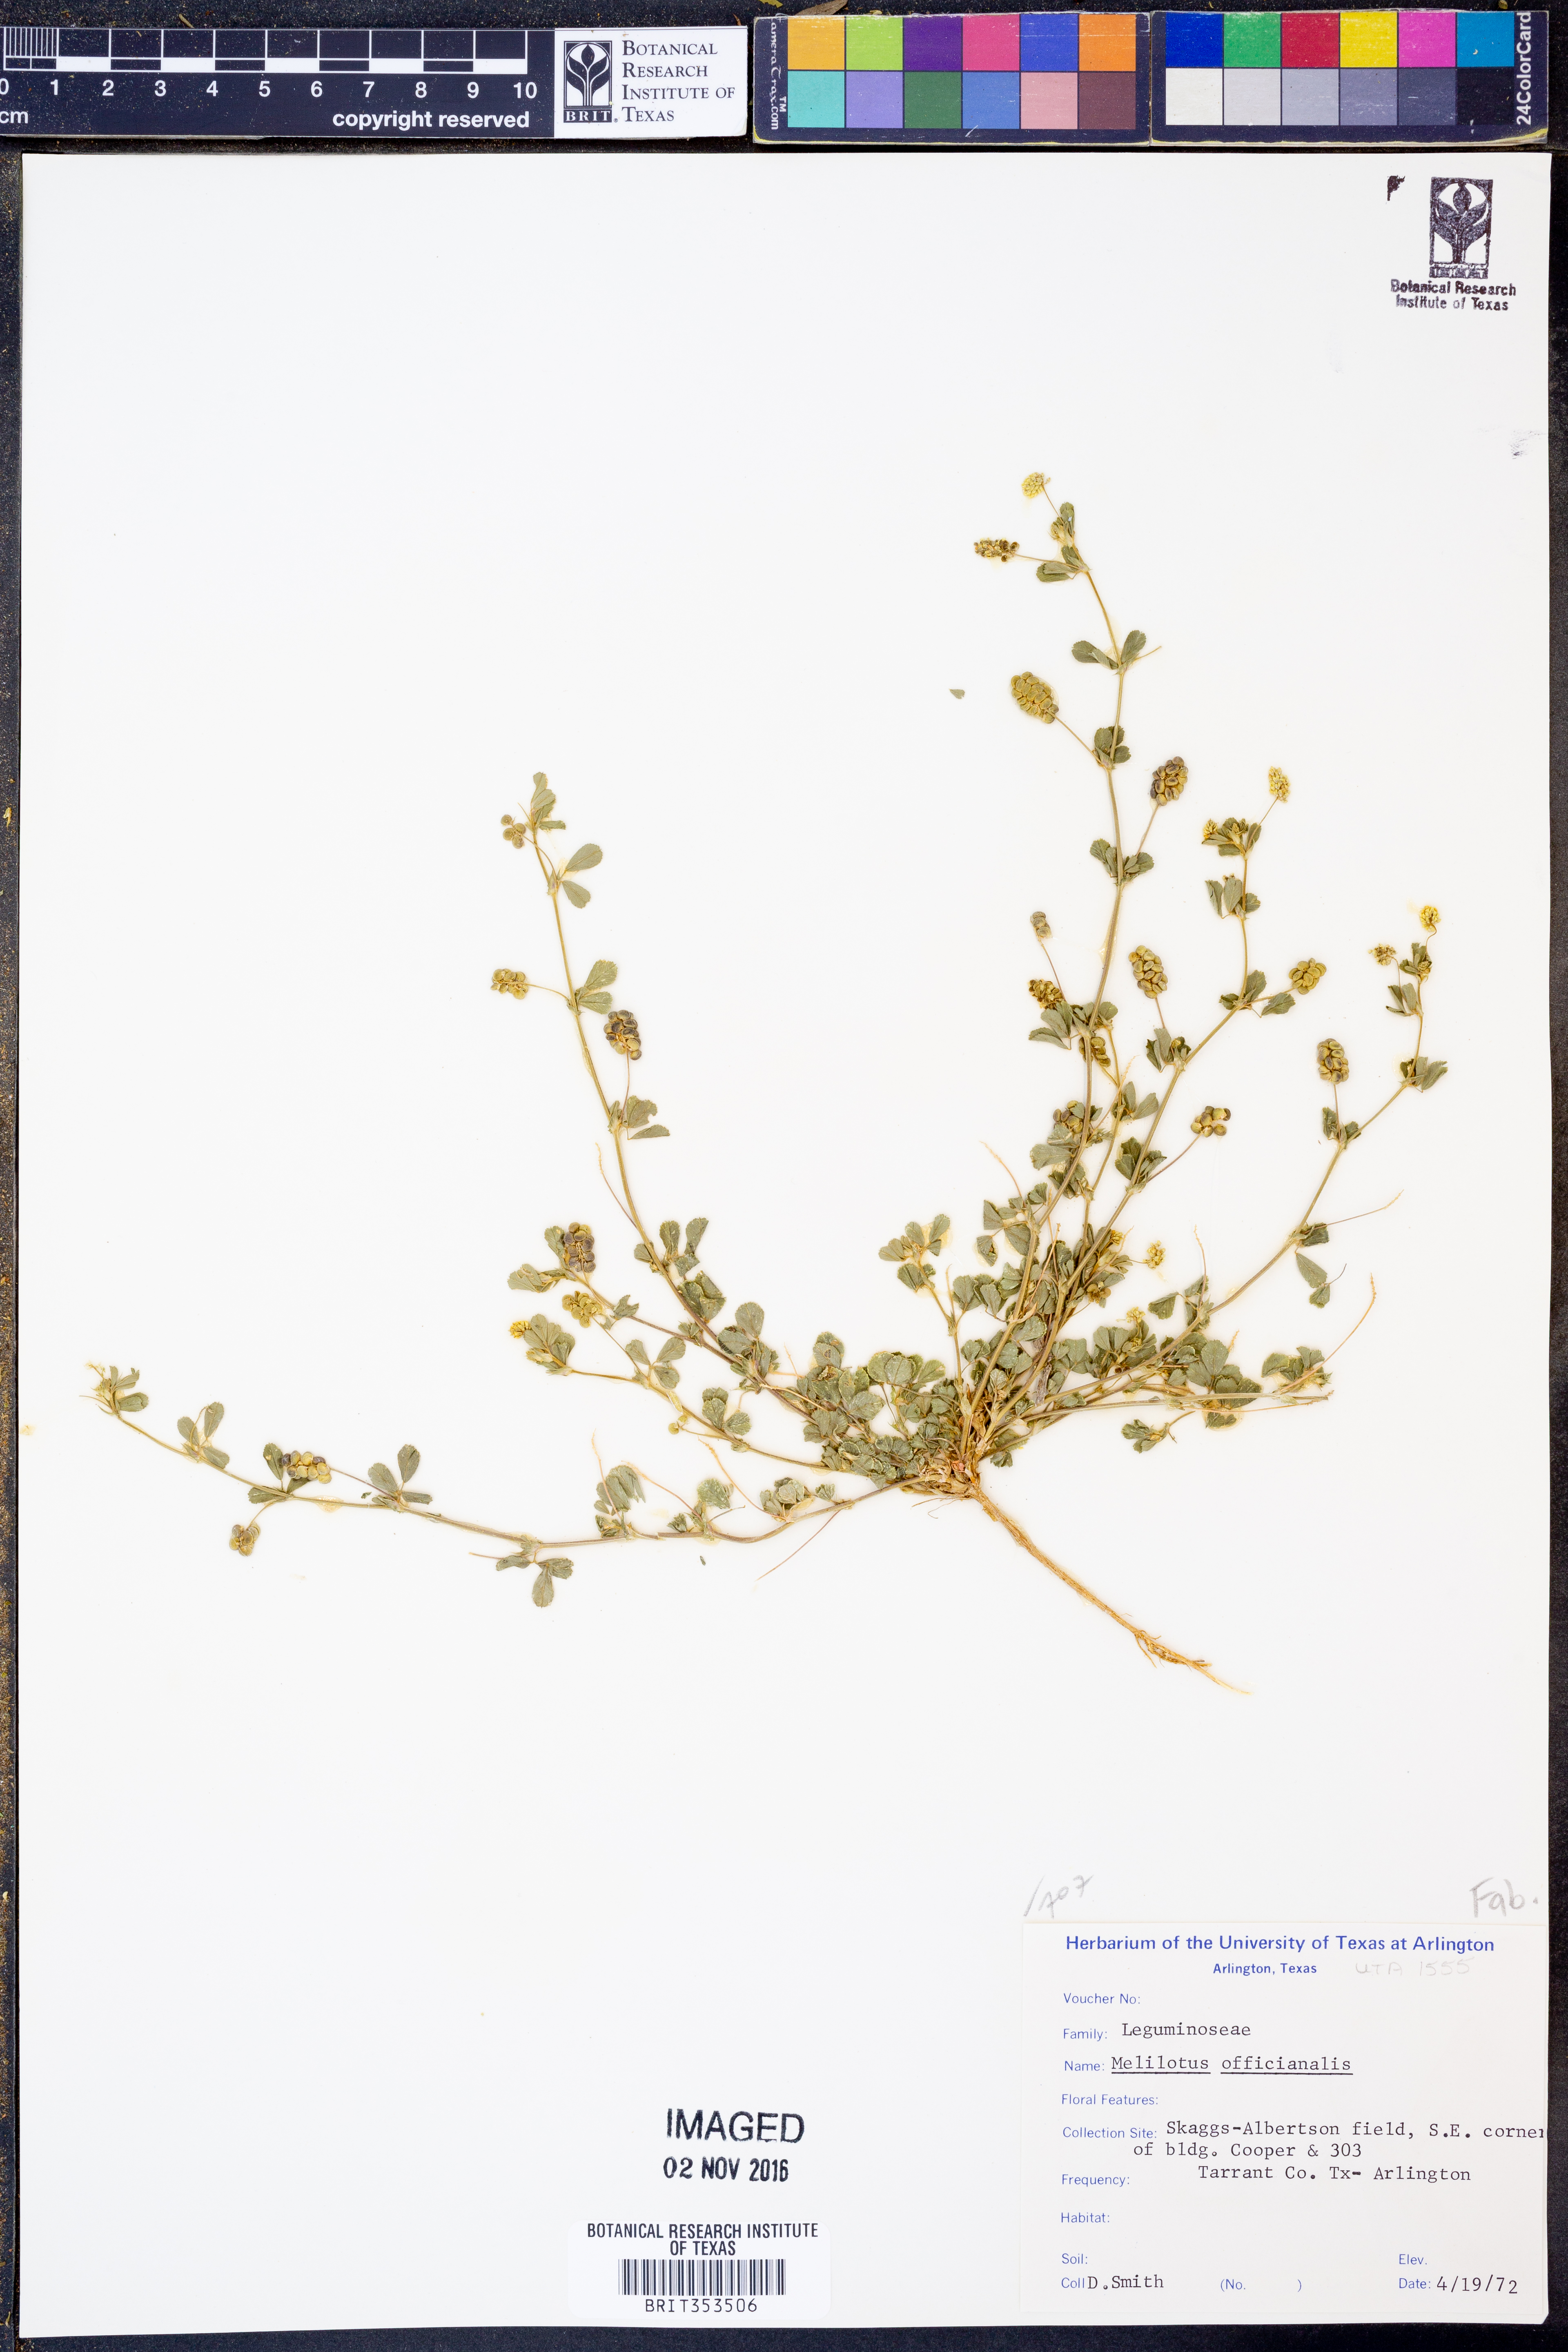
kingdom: Plantae
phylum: Tracheophyta
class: Magnoliopsida
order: Fabales
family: Fabaceae
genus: Melilotus
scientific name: Melilotus officinalis
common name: Sweetclover
